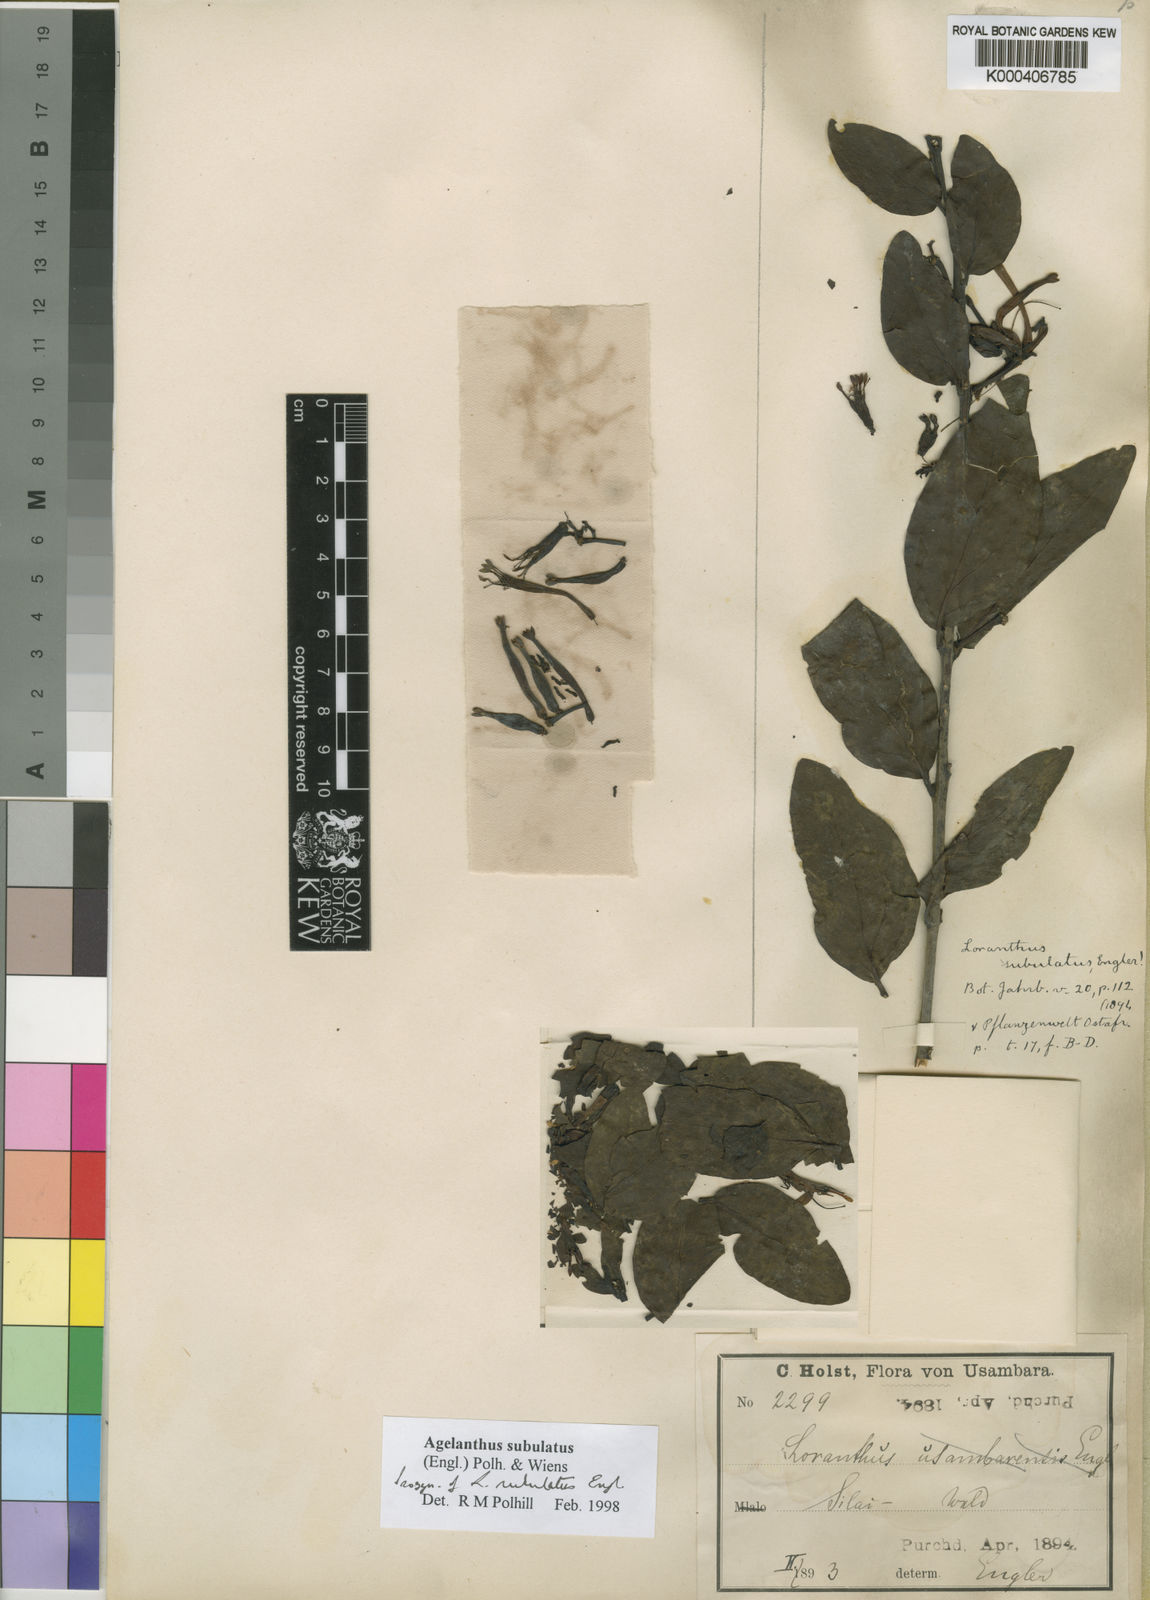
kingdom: Plantae
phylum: Tracheophyta
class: Magnoliopsida
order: Santalales
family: Loranthaceae
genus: Agelanthus
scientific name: Agelanthus subulatus
